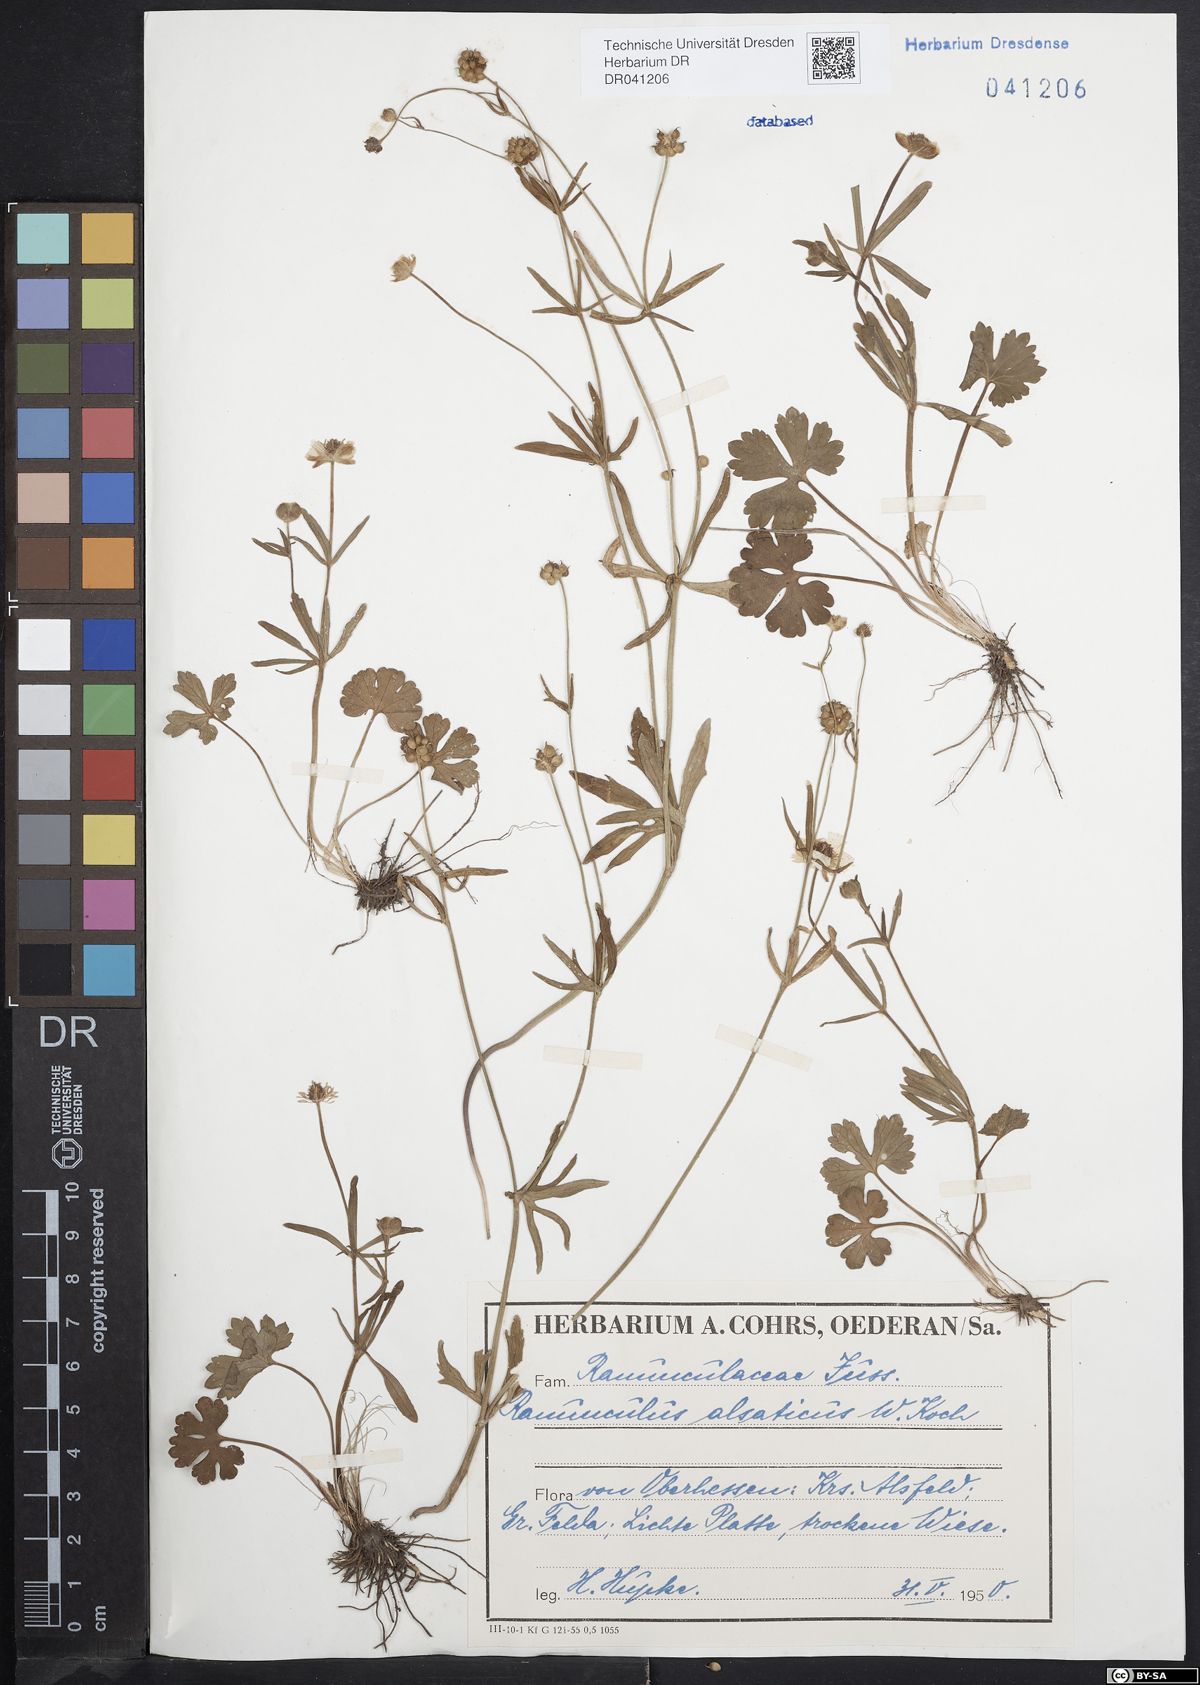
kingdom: Plantae
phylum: Tracheophyta
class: Magnoliopsida
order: Ranunculales
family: Ranunculaceae
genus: Ranunculus
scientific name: Ranunculus auricomus
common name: Goldilocks buttercup
